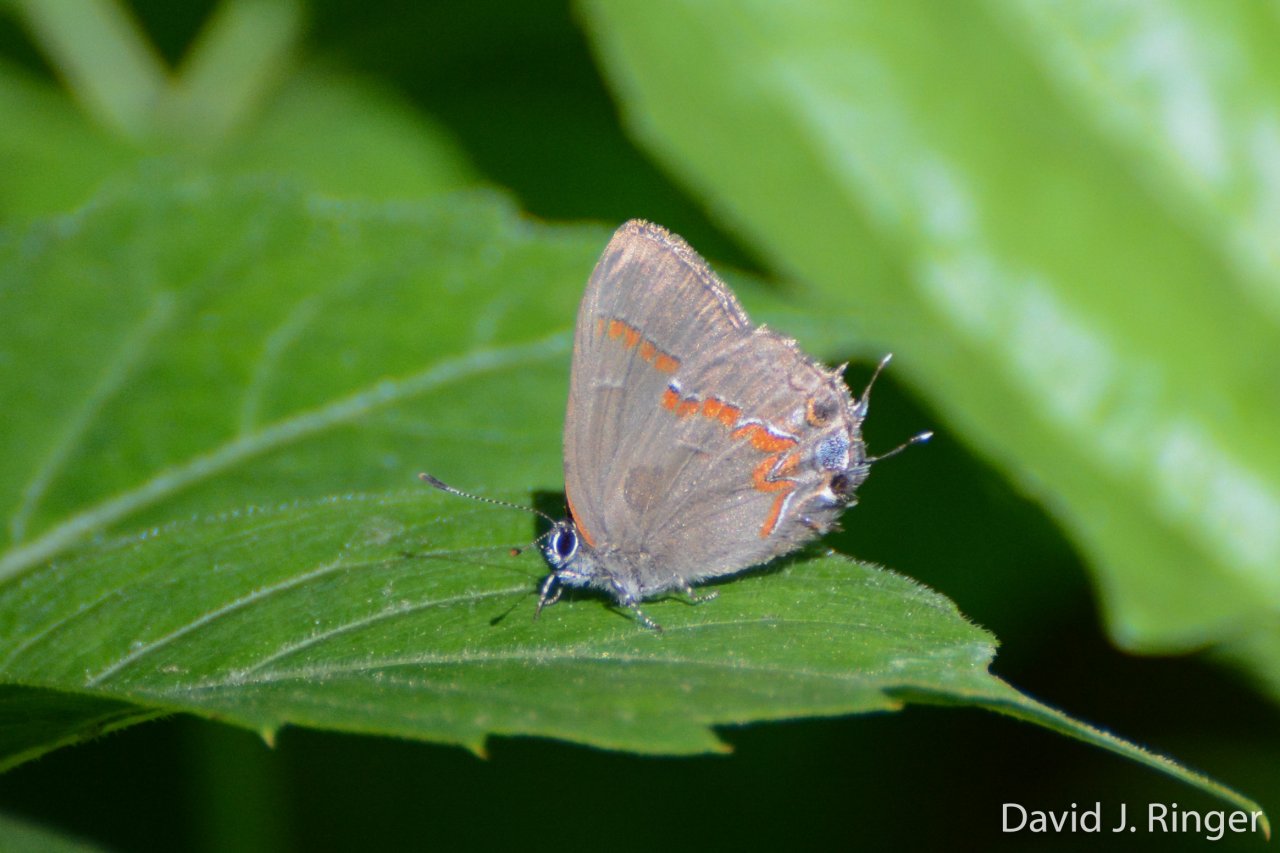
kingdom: Animalia
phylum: Arthropoda
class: Insecta
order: Lepidoptera
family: Lycaenidae
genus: Calycopis
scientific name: Calycopis cecrops
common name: Red-banded Hairstreak
